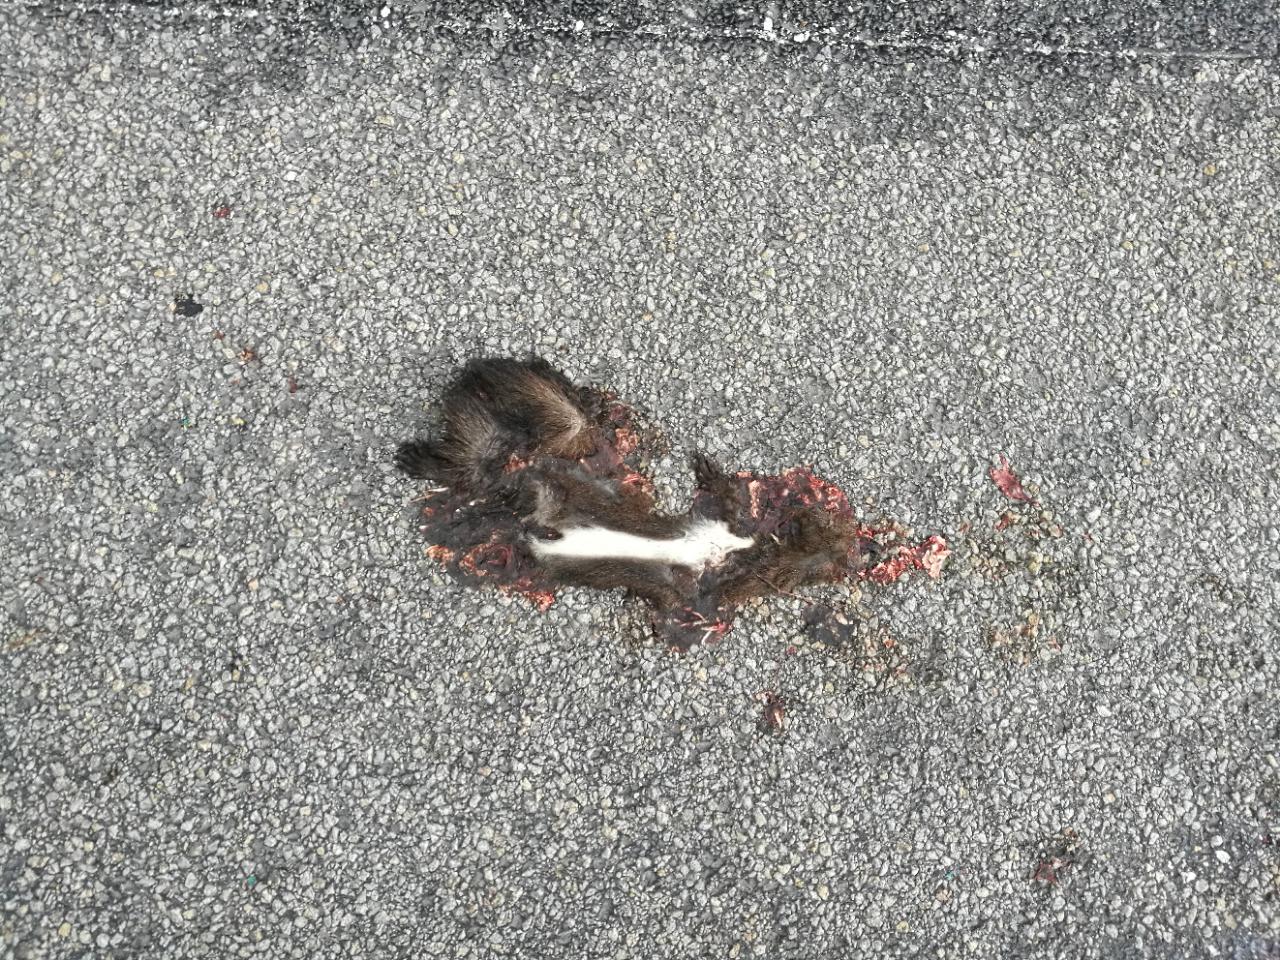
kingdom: Animalia
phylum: Chordata
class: Mammalia
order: Rodentia
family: Sciuridae
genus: Sciurus
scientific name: Sciurus vulgaris
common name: Eurasian red squirrel
